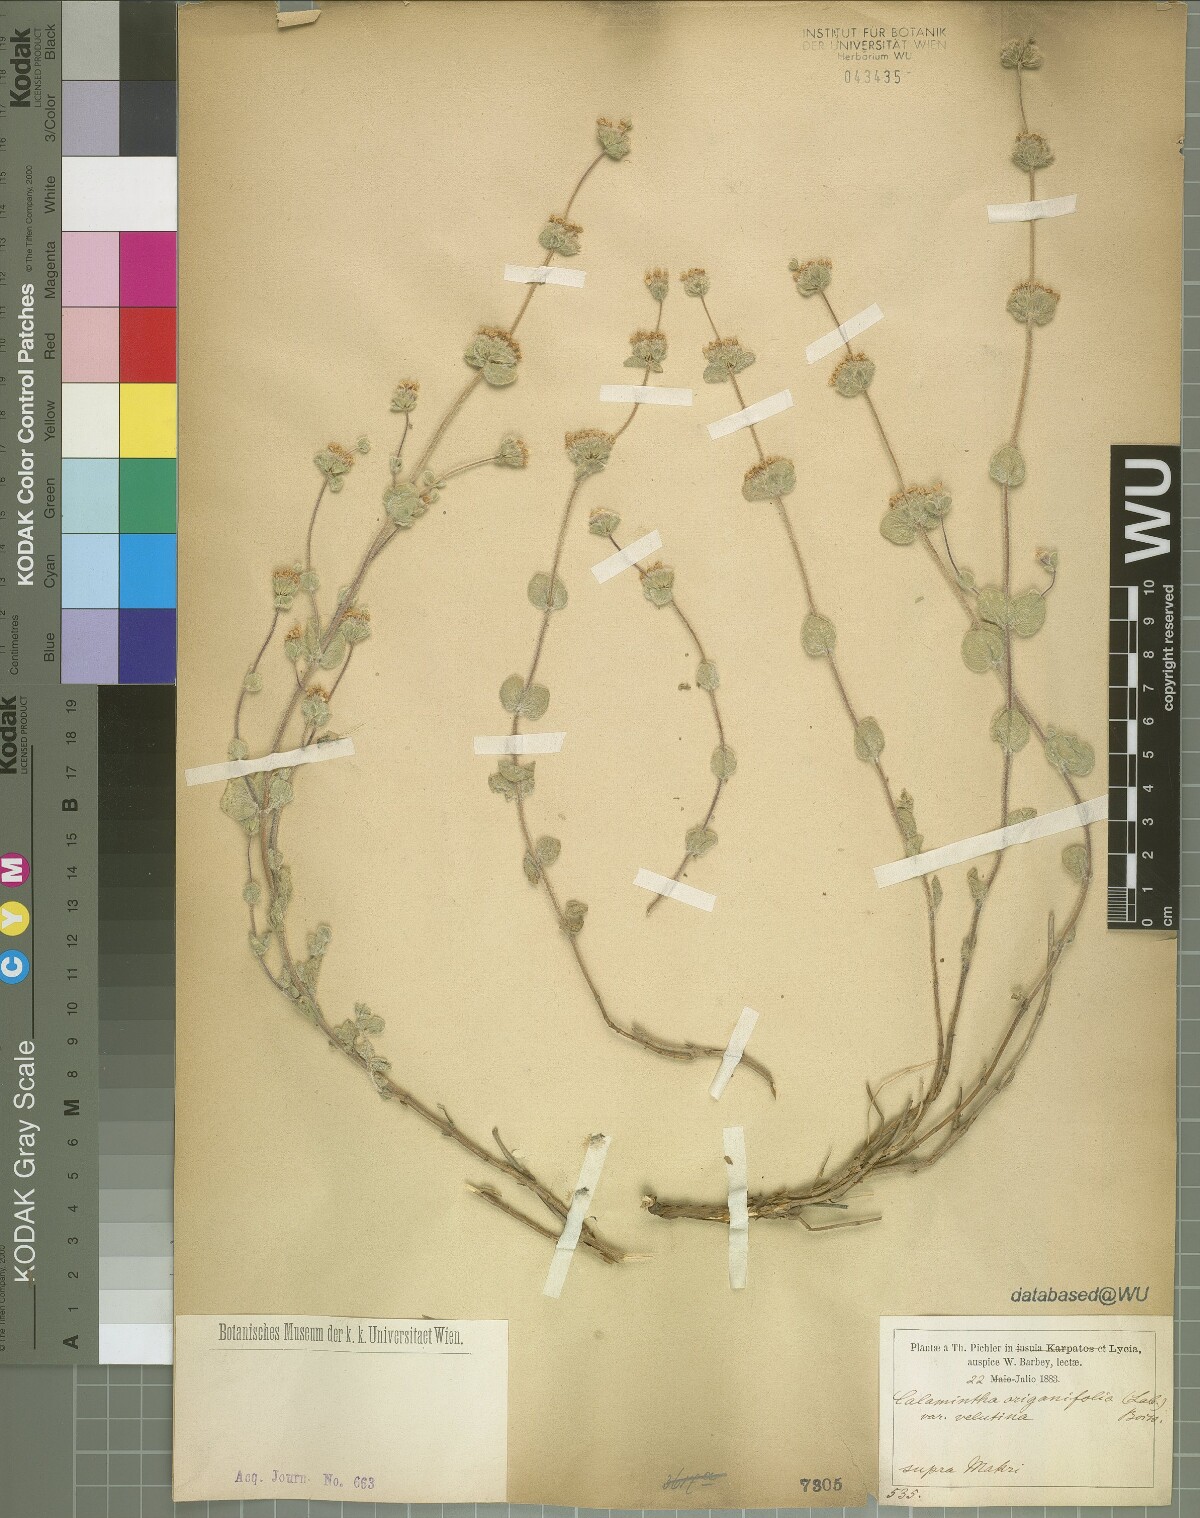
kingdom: Plantae
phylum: Tracheophyta
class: Magnoliopsida
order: Lamiales
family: Lamiaceae
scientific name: Lamiaceae
